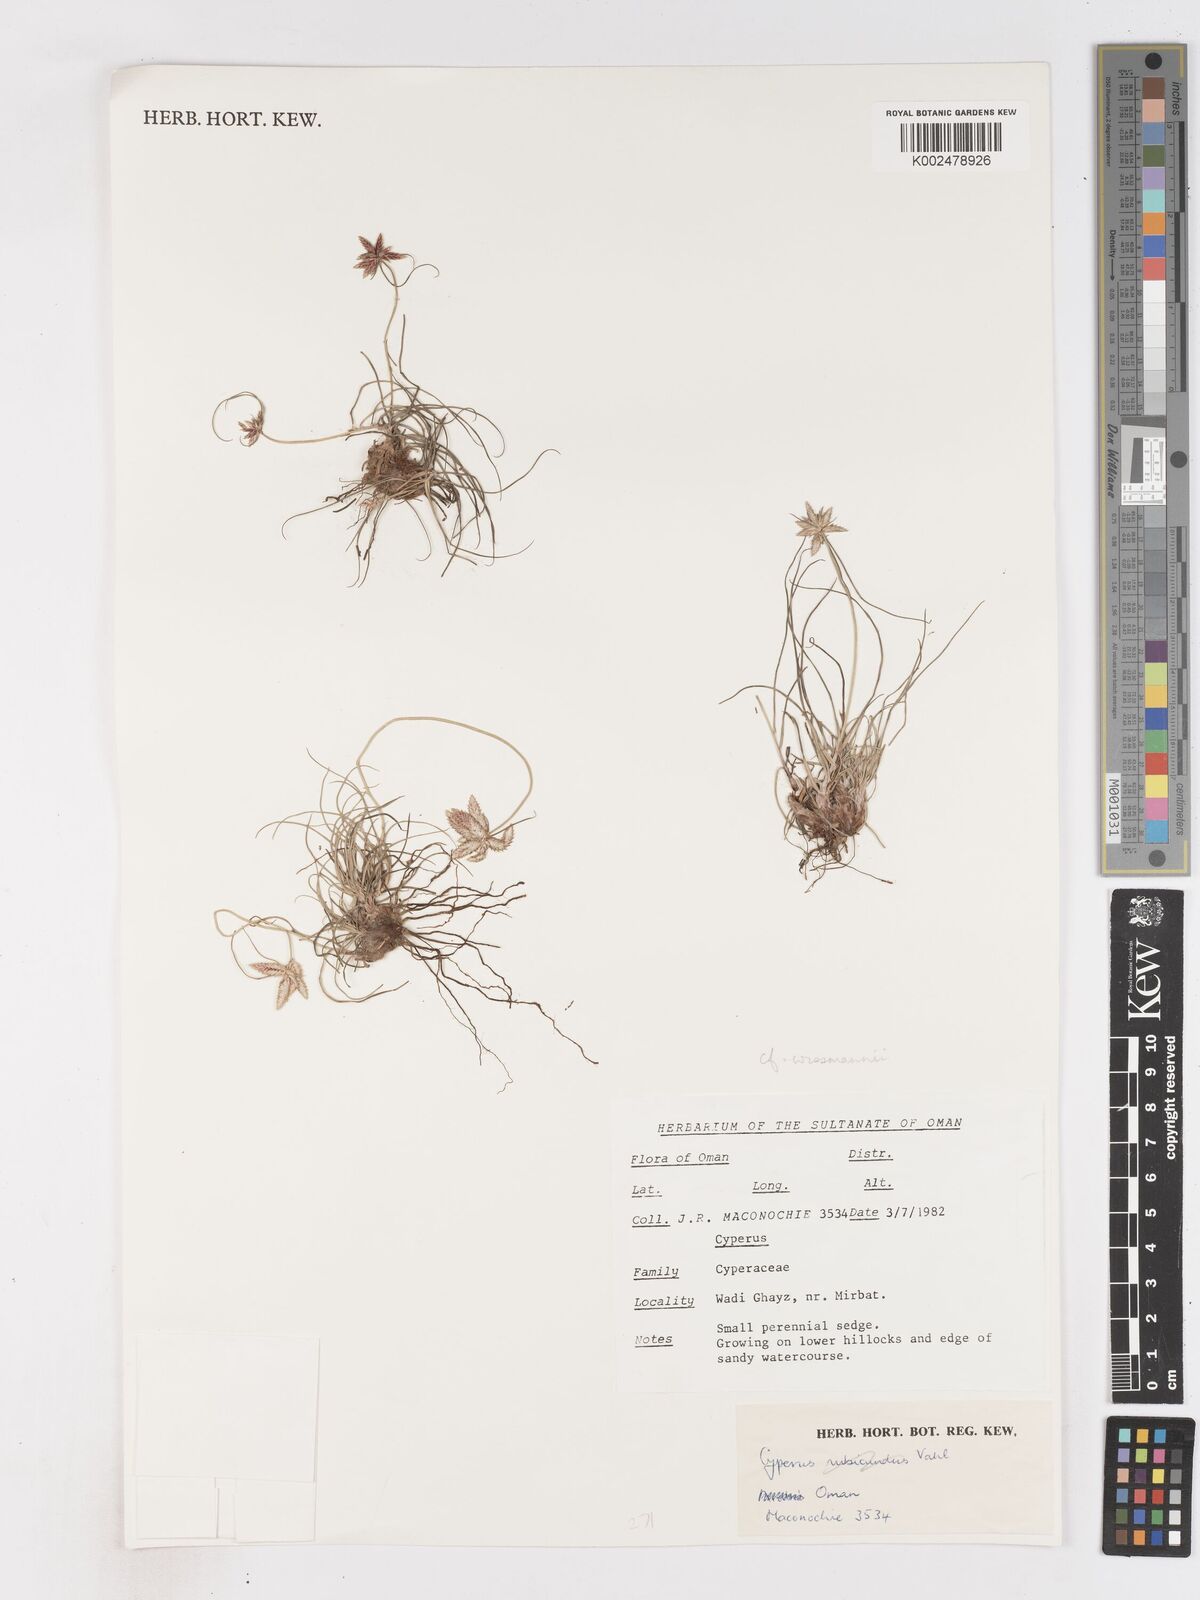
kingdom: Plantae
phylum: Tracheophyta
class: Liliopsida
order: Poales
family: Cyperaceae
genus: Cyperus
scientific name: Cyperus wissmannii
